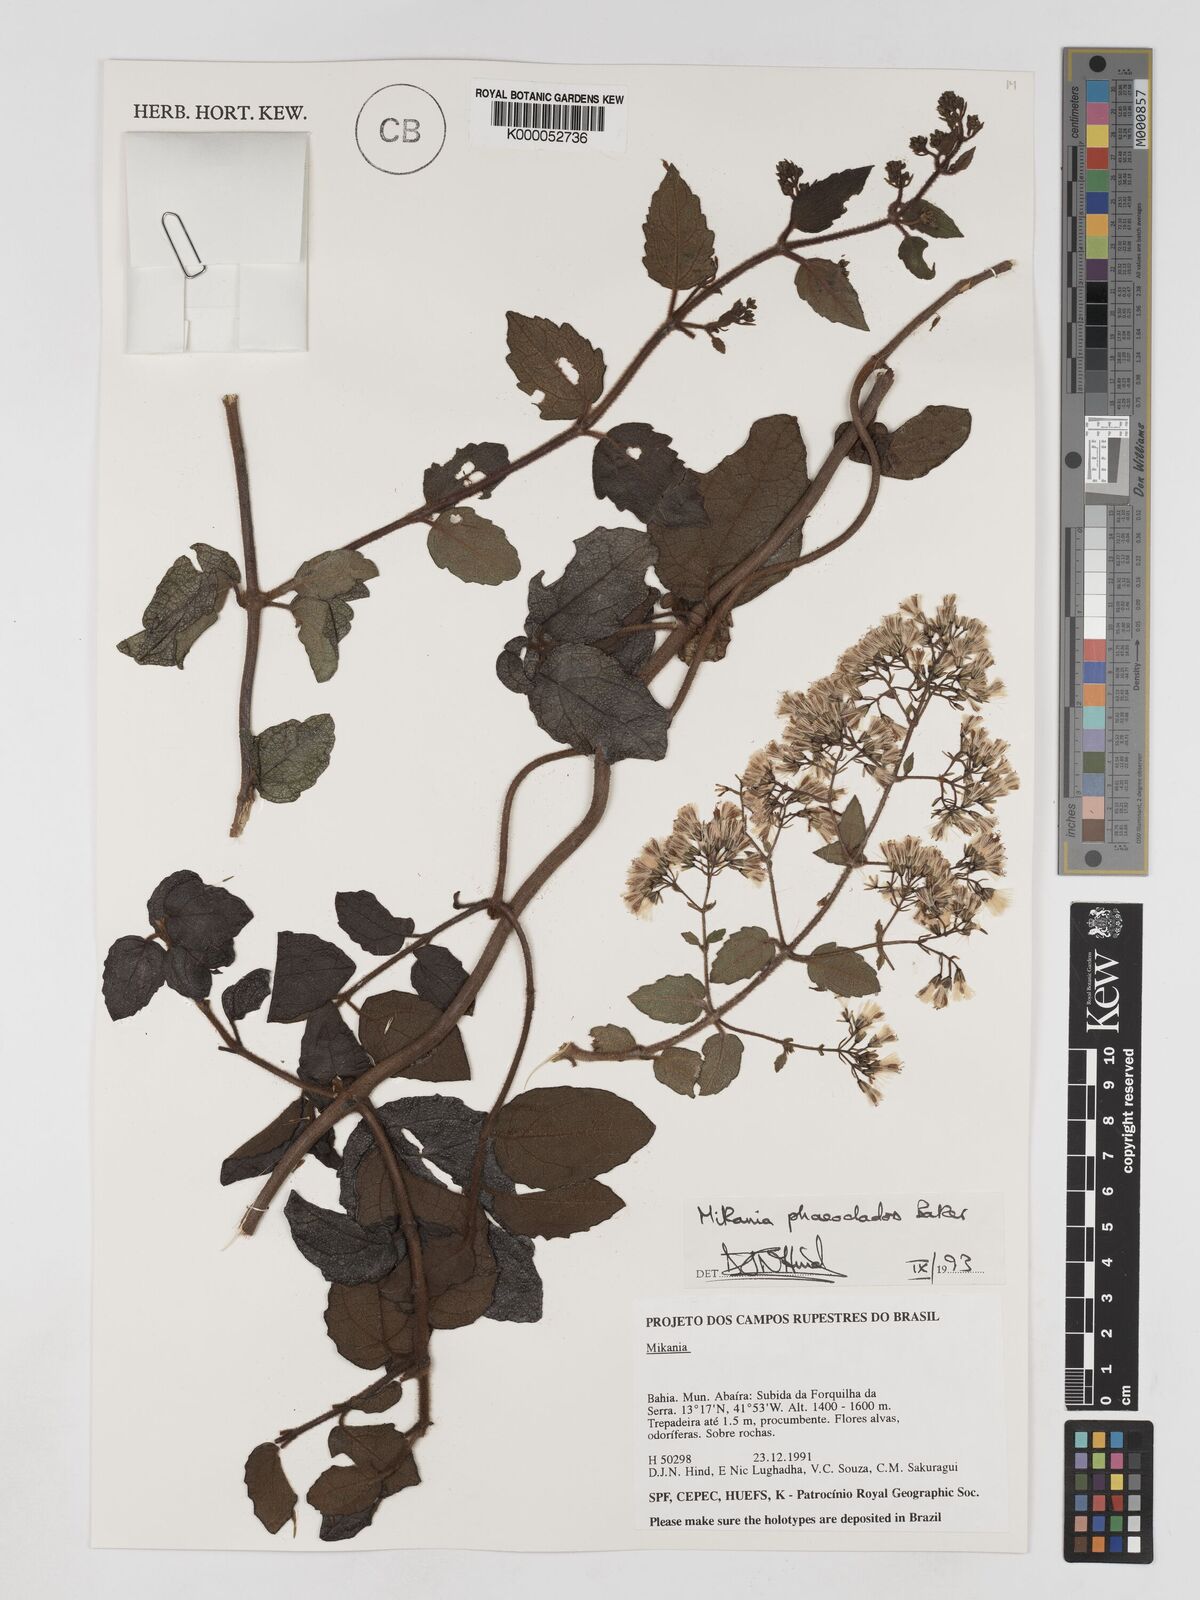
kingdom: Plantae
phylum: Tracheophyta
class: Magnoliopsida
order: Asterales
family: Asteraceae
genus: Mikania
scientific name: Mikania phaeoclados
